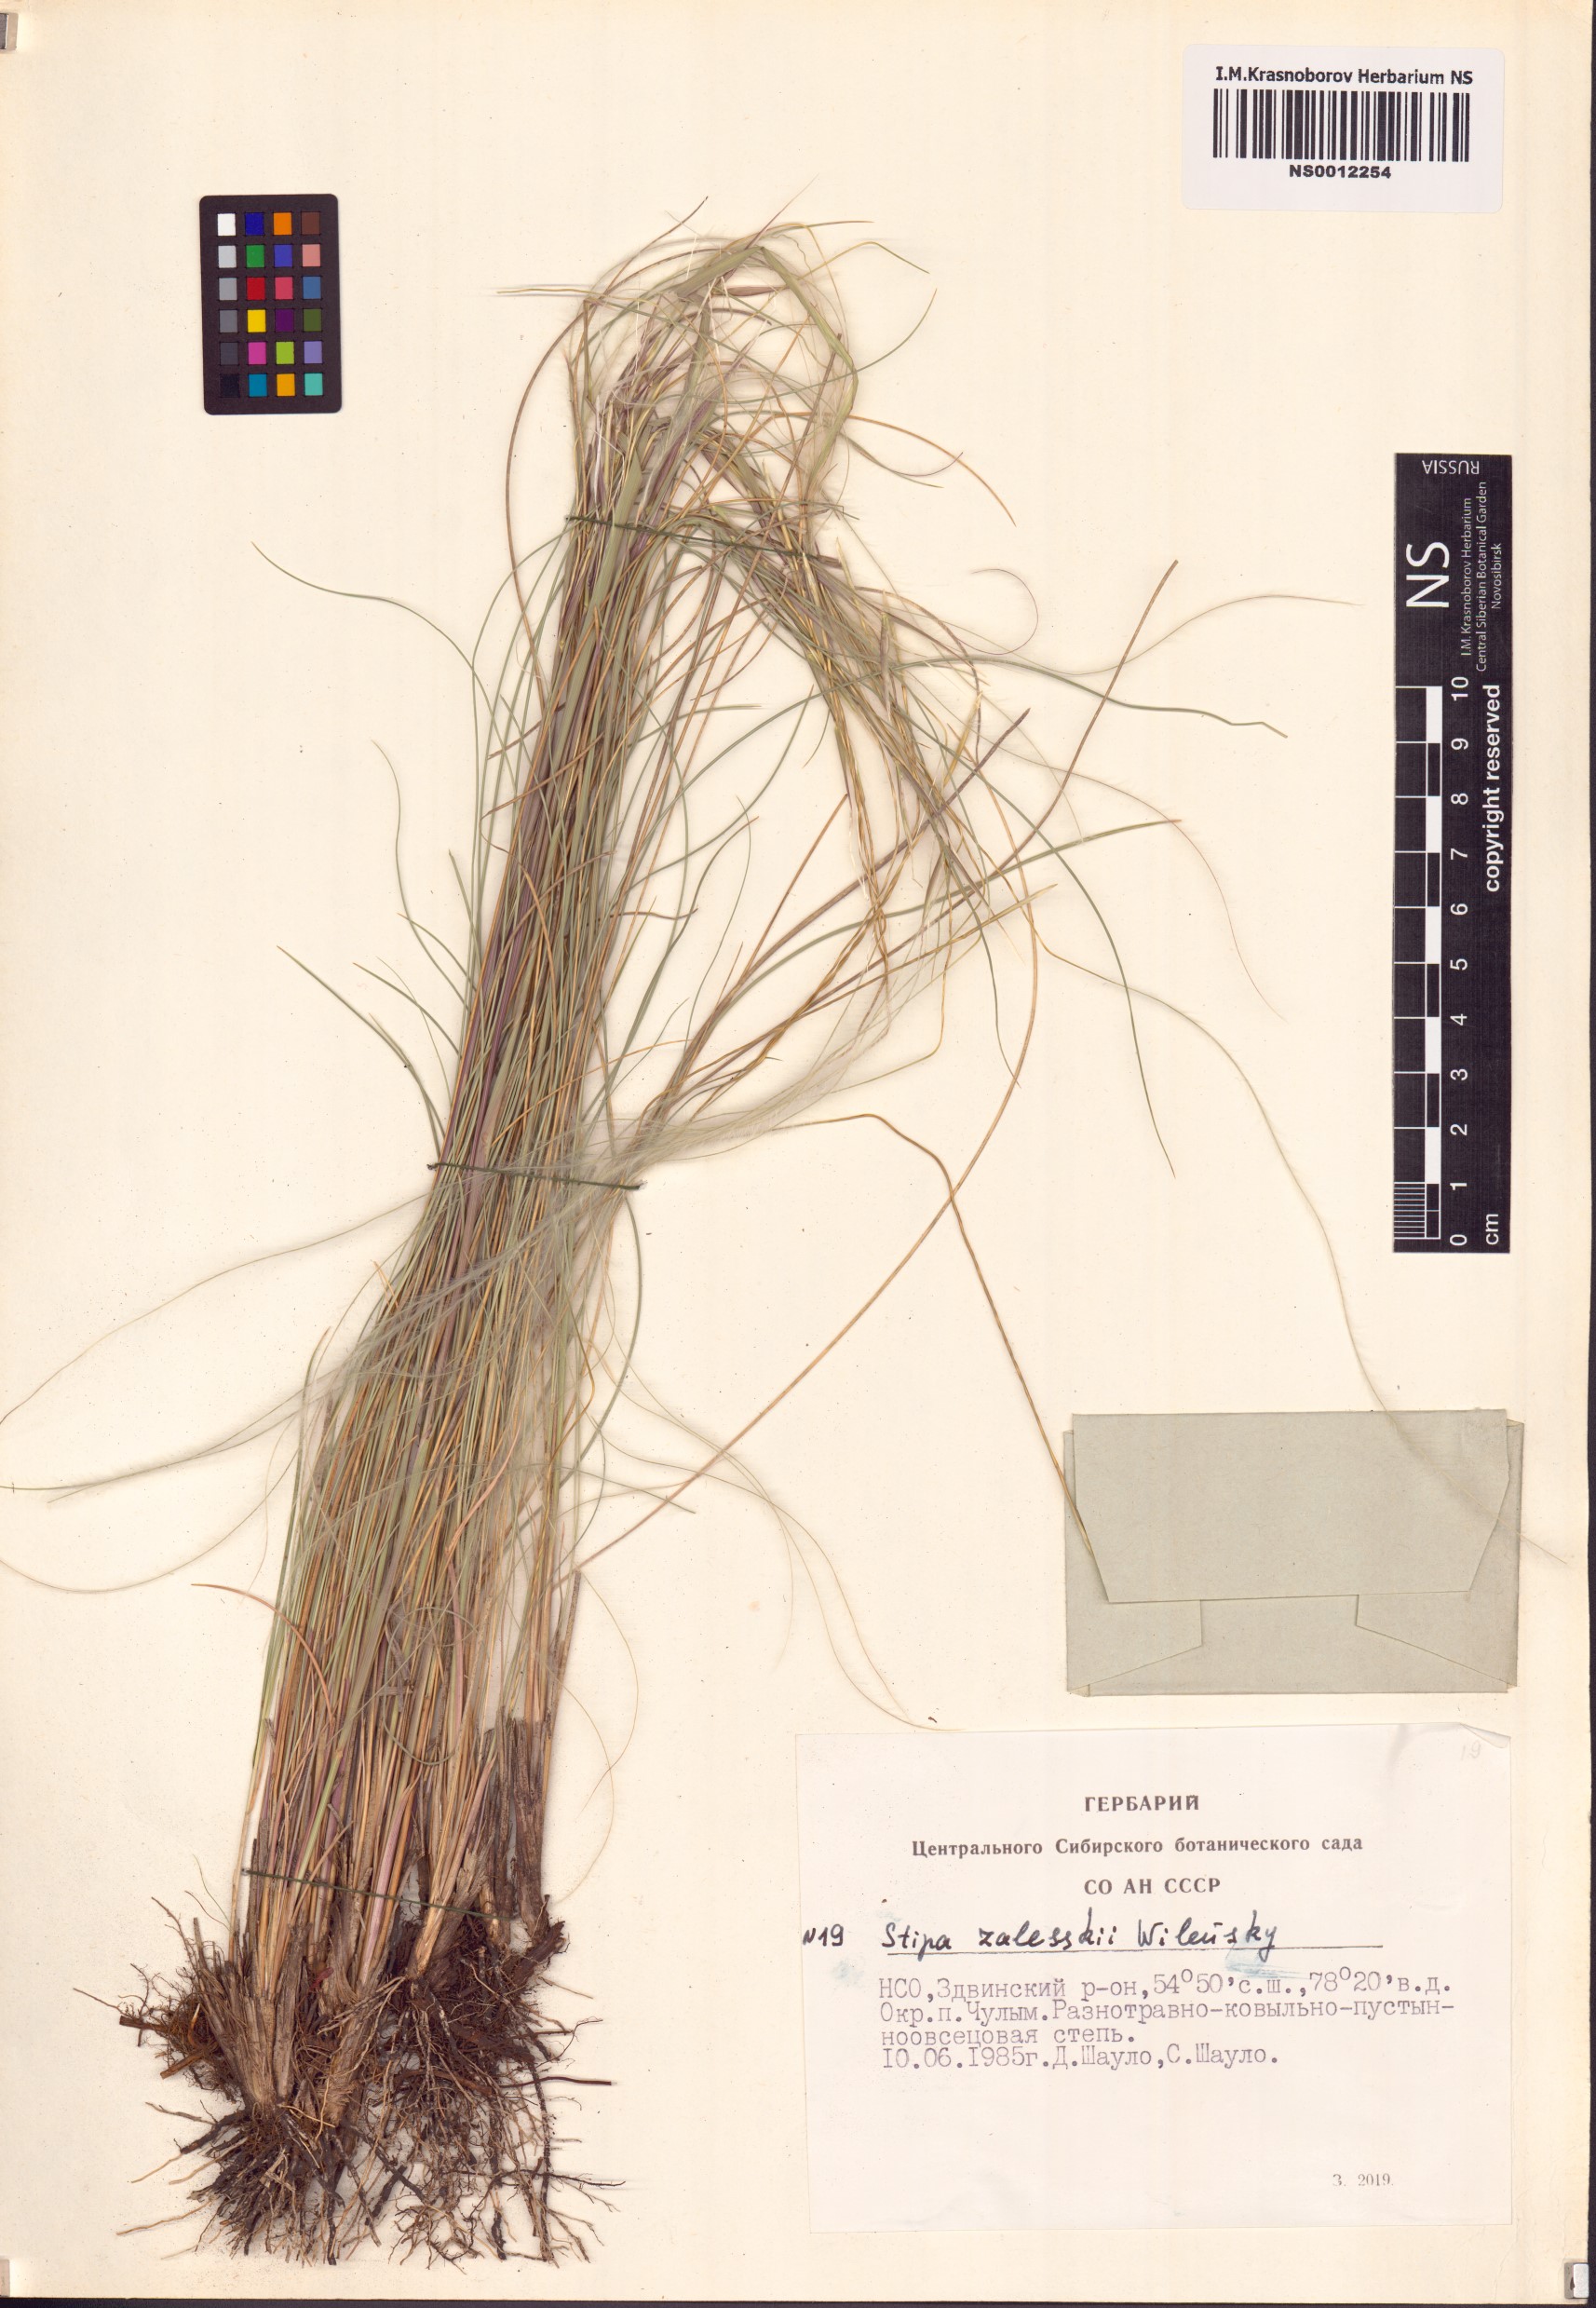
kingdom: Plantae
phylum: Tracheophyta
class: Liliopsida
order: Poales
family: Poaceae
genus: Stipa
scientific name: Stipa zalesskii
